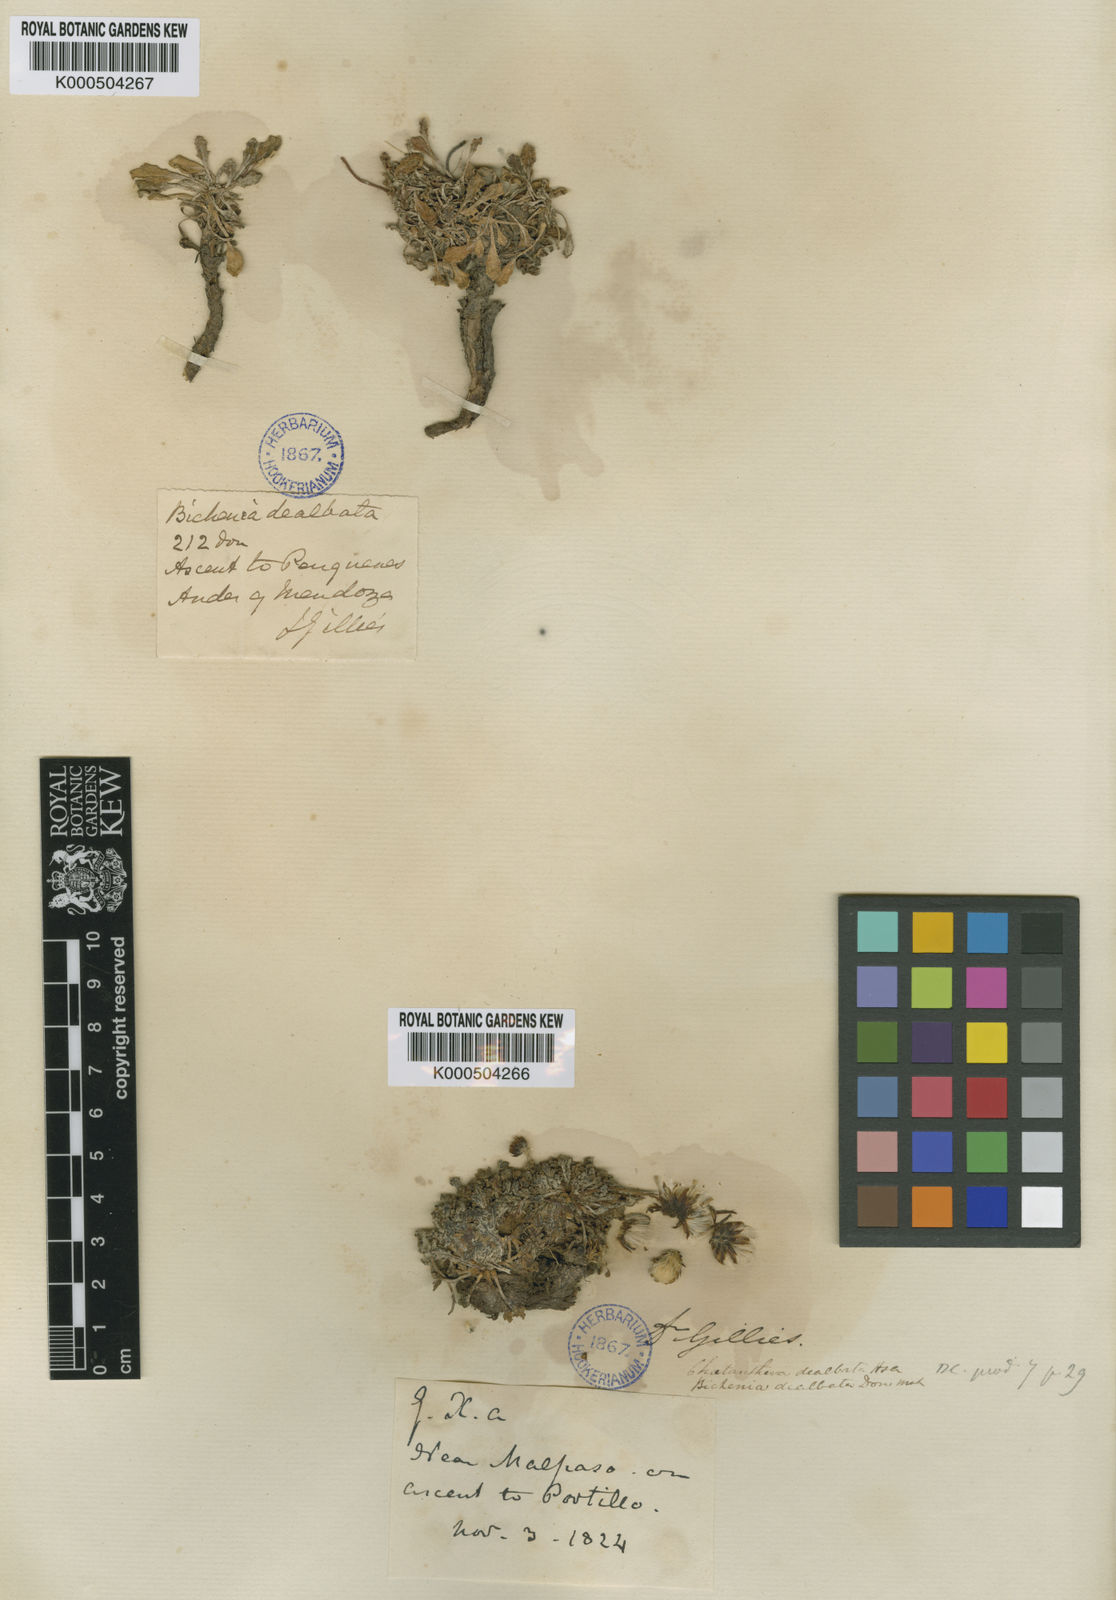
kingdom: Plantae
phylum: Tracheophyta
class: Magnoliopsida
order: Asterales
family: Asteraceae
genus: Trichocline
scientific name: Trichocline
